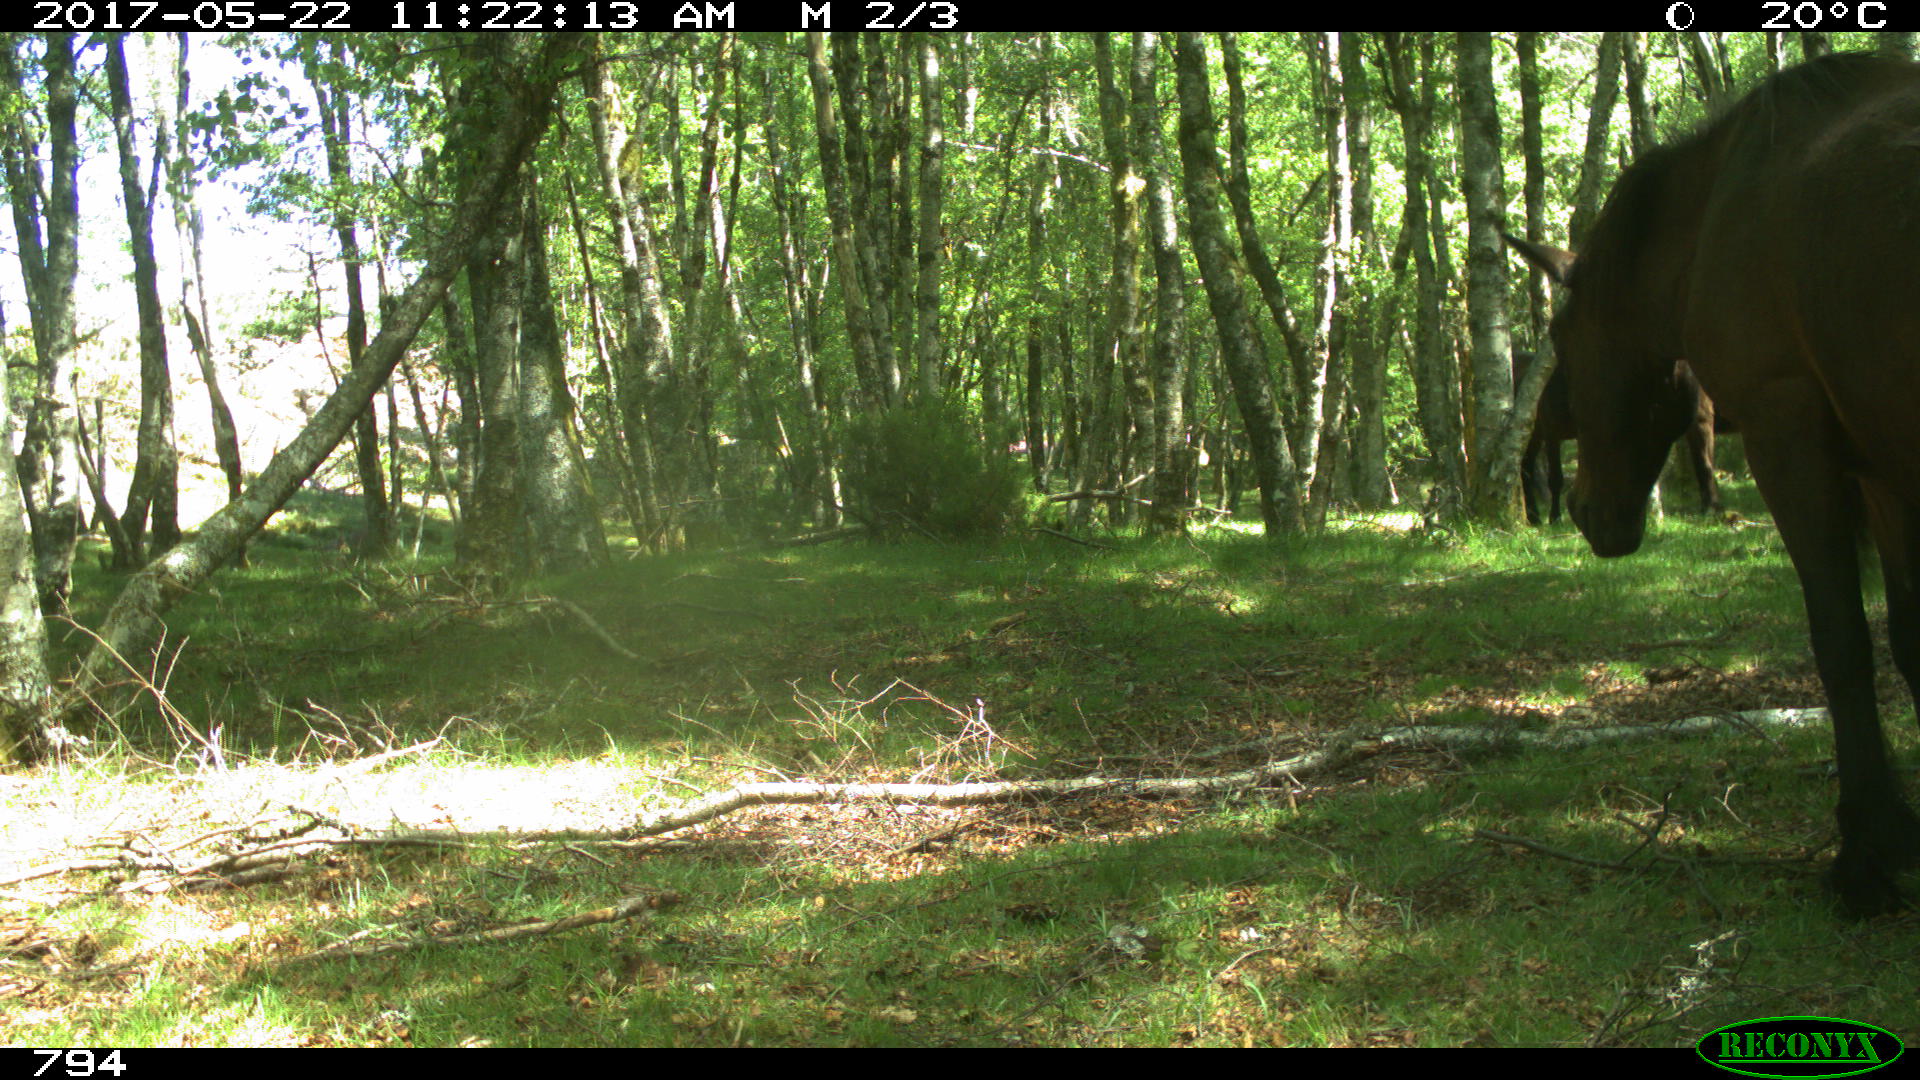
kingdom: Animalia
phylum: Chordata
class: Mammalia
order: Perissodactyla
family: Equidae
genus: Equus
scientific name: Equus caballus
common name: Horse
